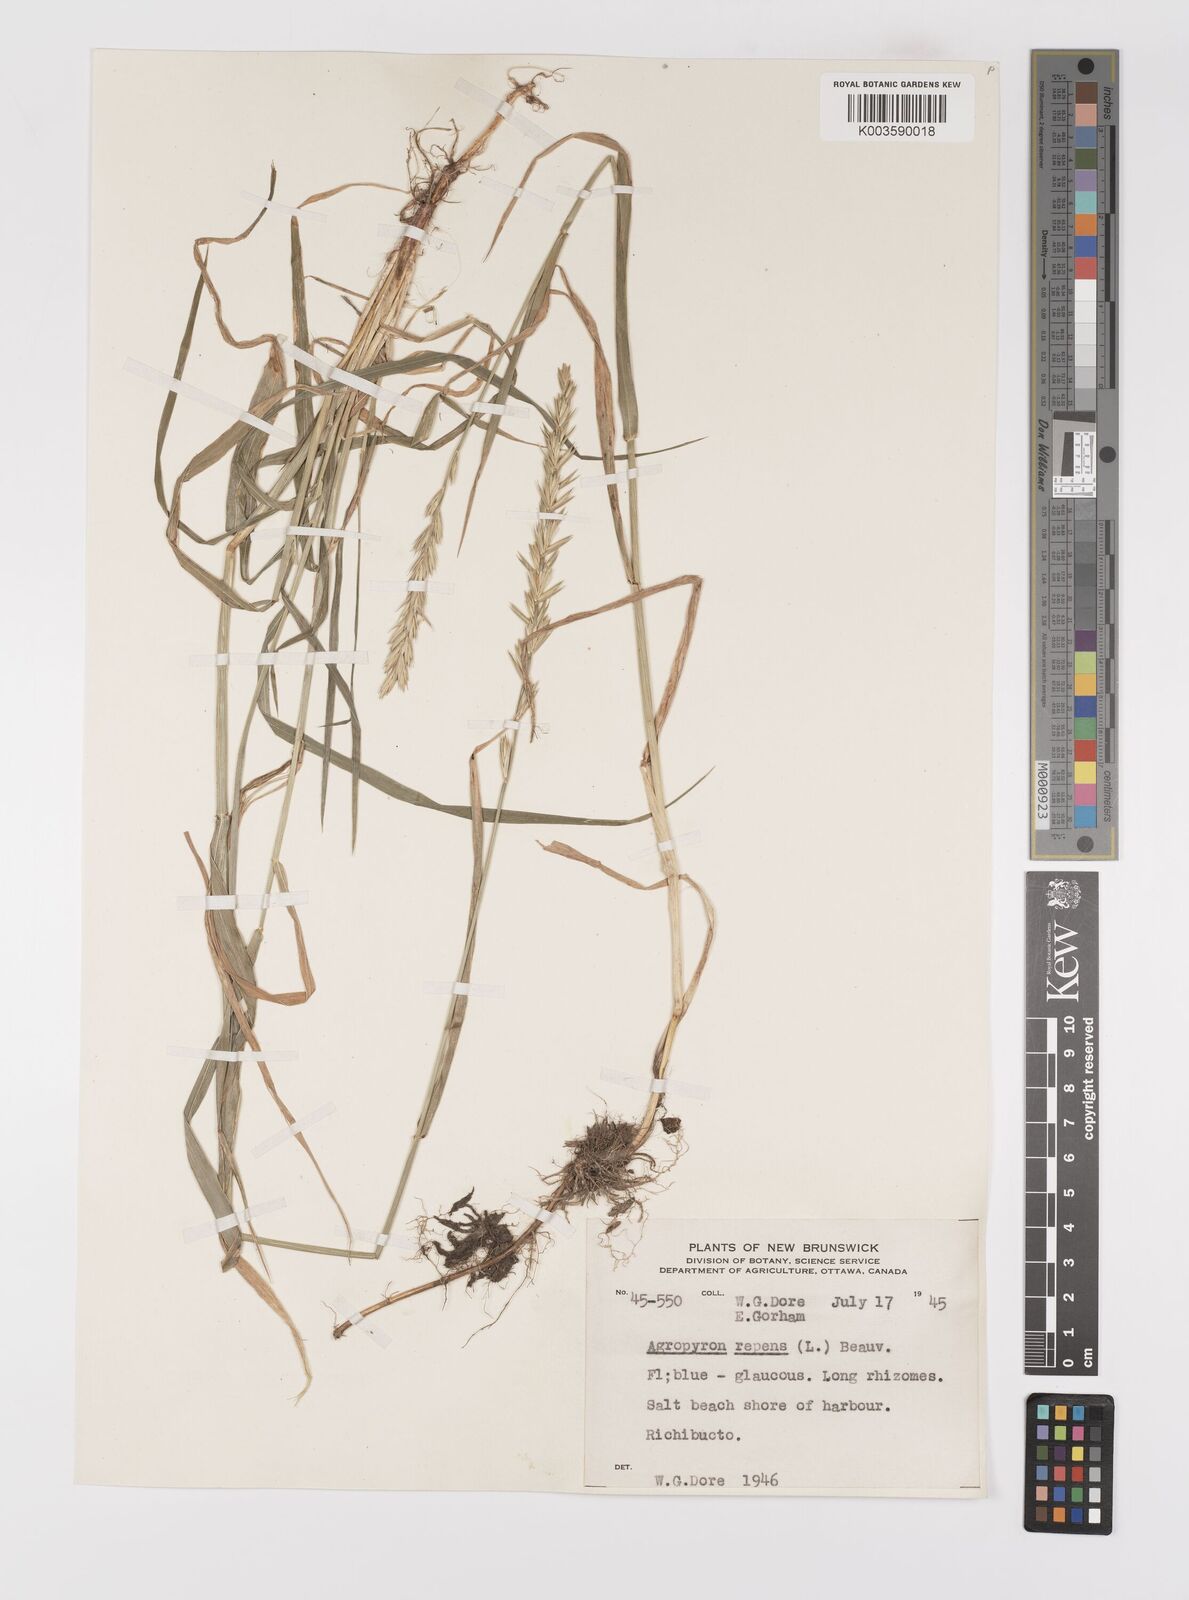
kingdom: Plantae
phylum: Tracheophyta
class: Liliopsida
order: Poales
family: Poaceae
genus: Elymus
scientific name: Elymus repens
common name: Quackgrass
